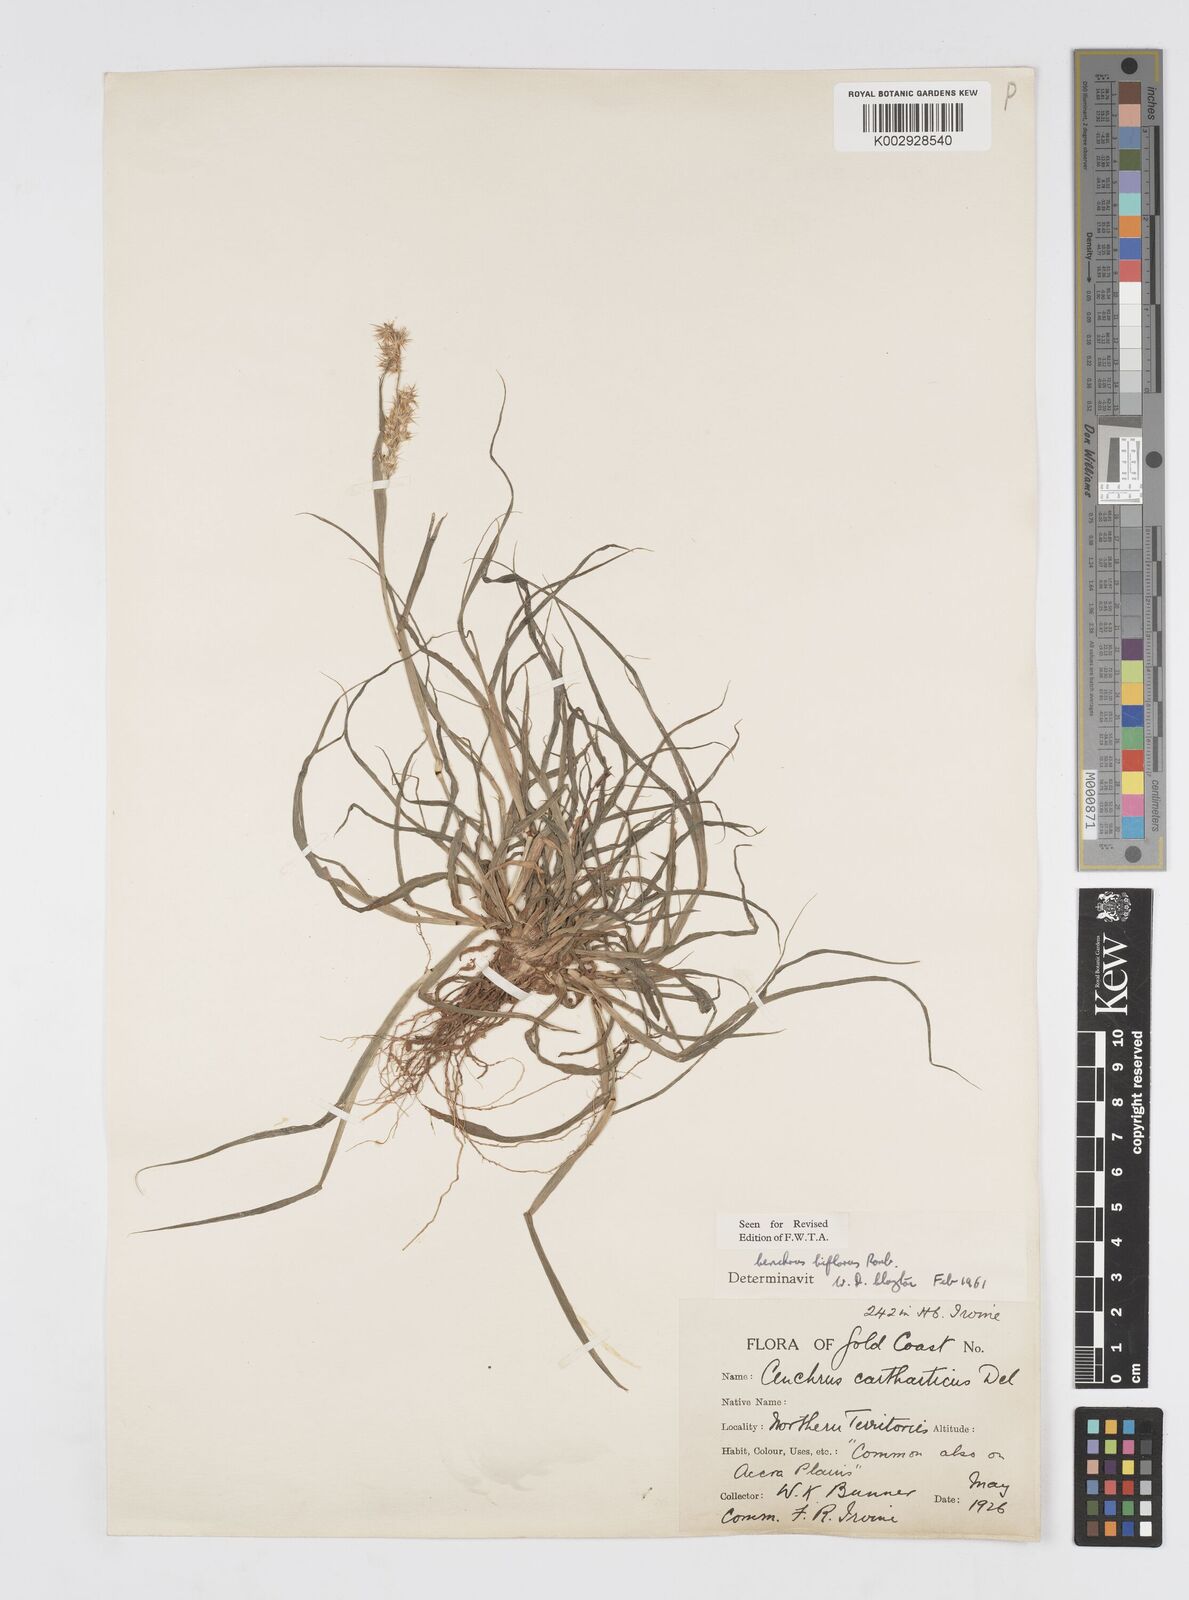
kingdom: Plantae
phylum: Tracheophyta
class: Liliopsida
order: Poales
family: Poaceae
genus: Cenchrus
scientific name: Cenchrus biflorus
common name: Indian sandbur
